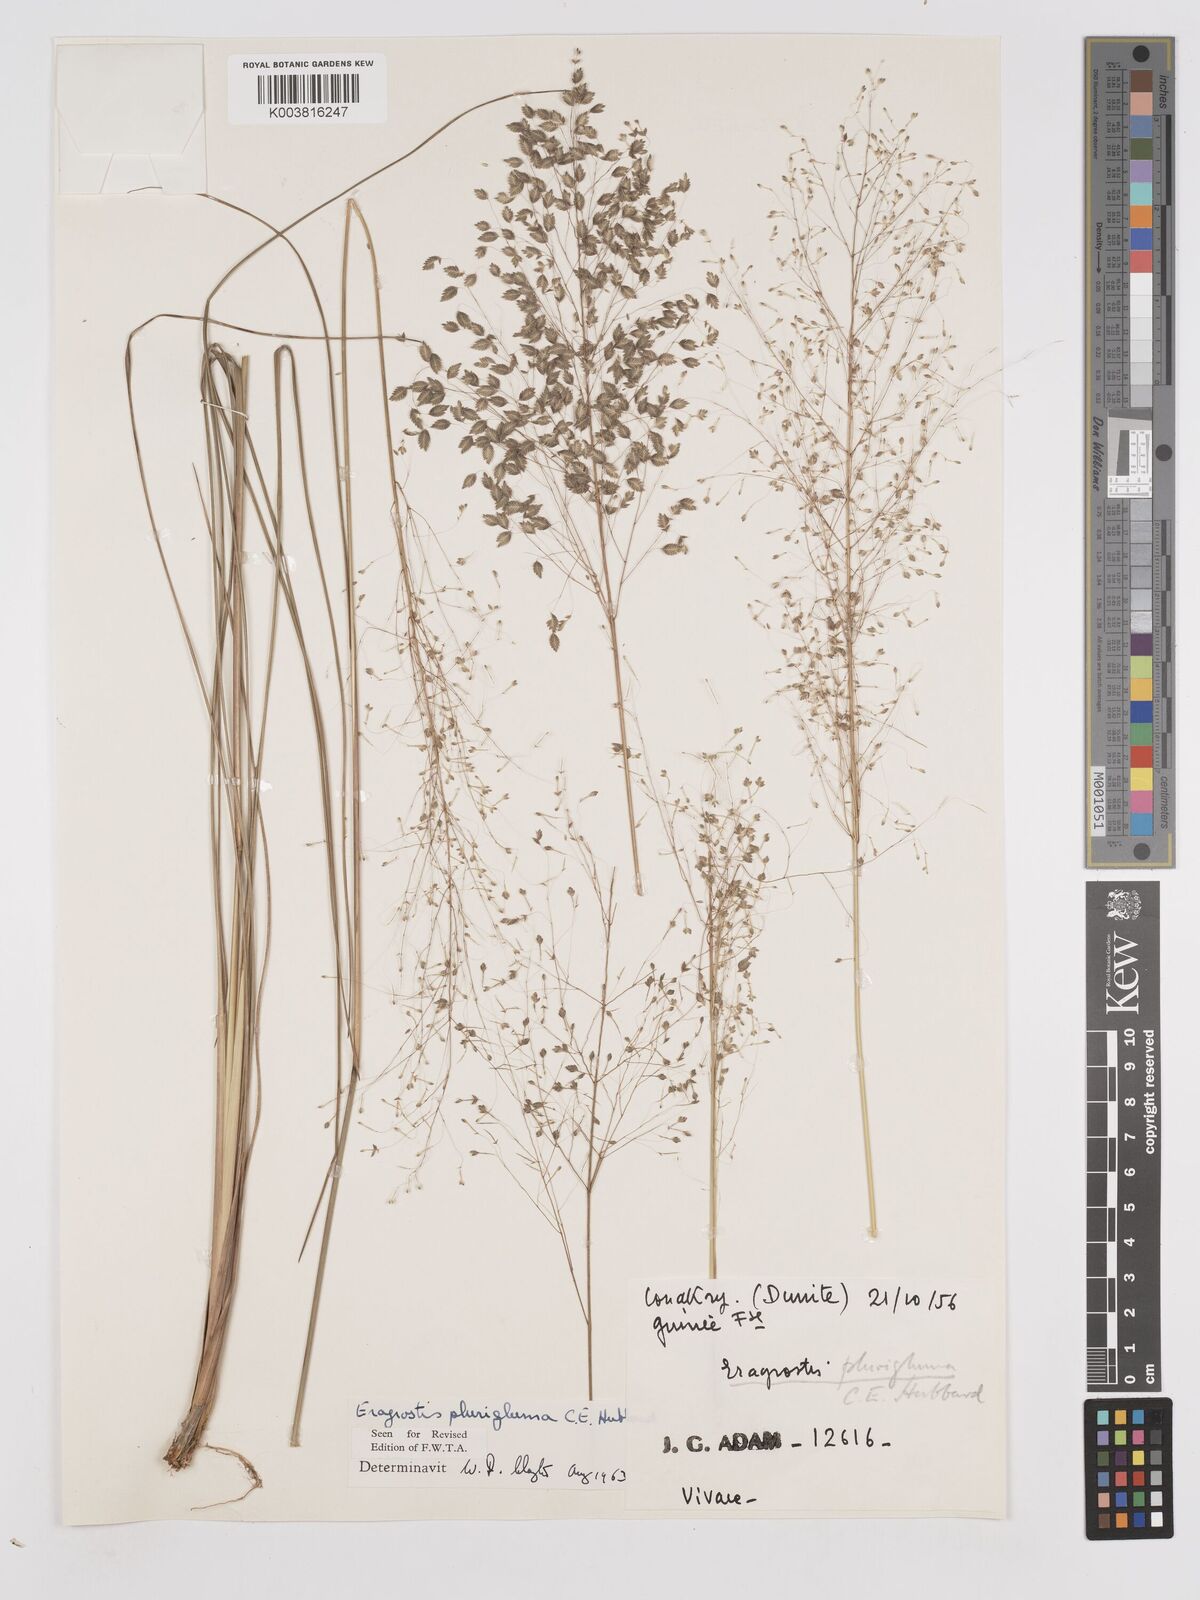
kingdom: Plantae
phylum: Tracheophyta
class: Liliopsida
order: Poales
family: Poaceae
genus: Eragrostis
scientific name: Eragrostis plurigluma
